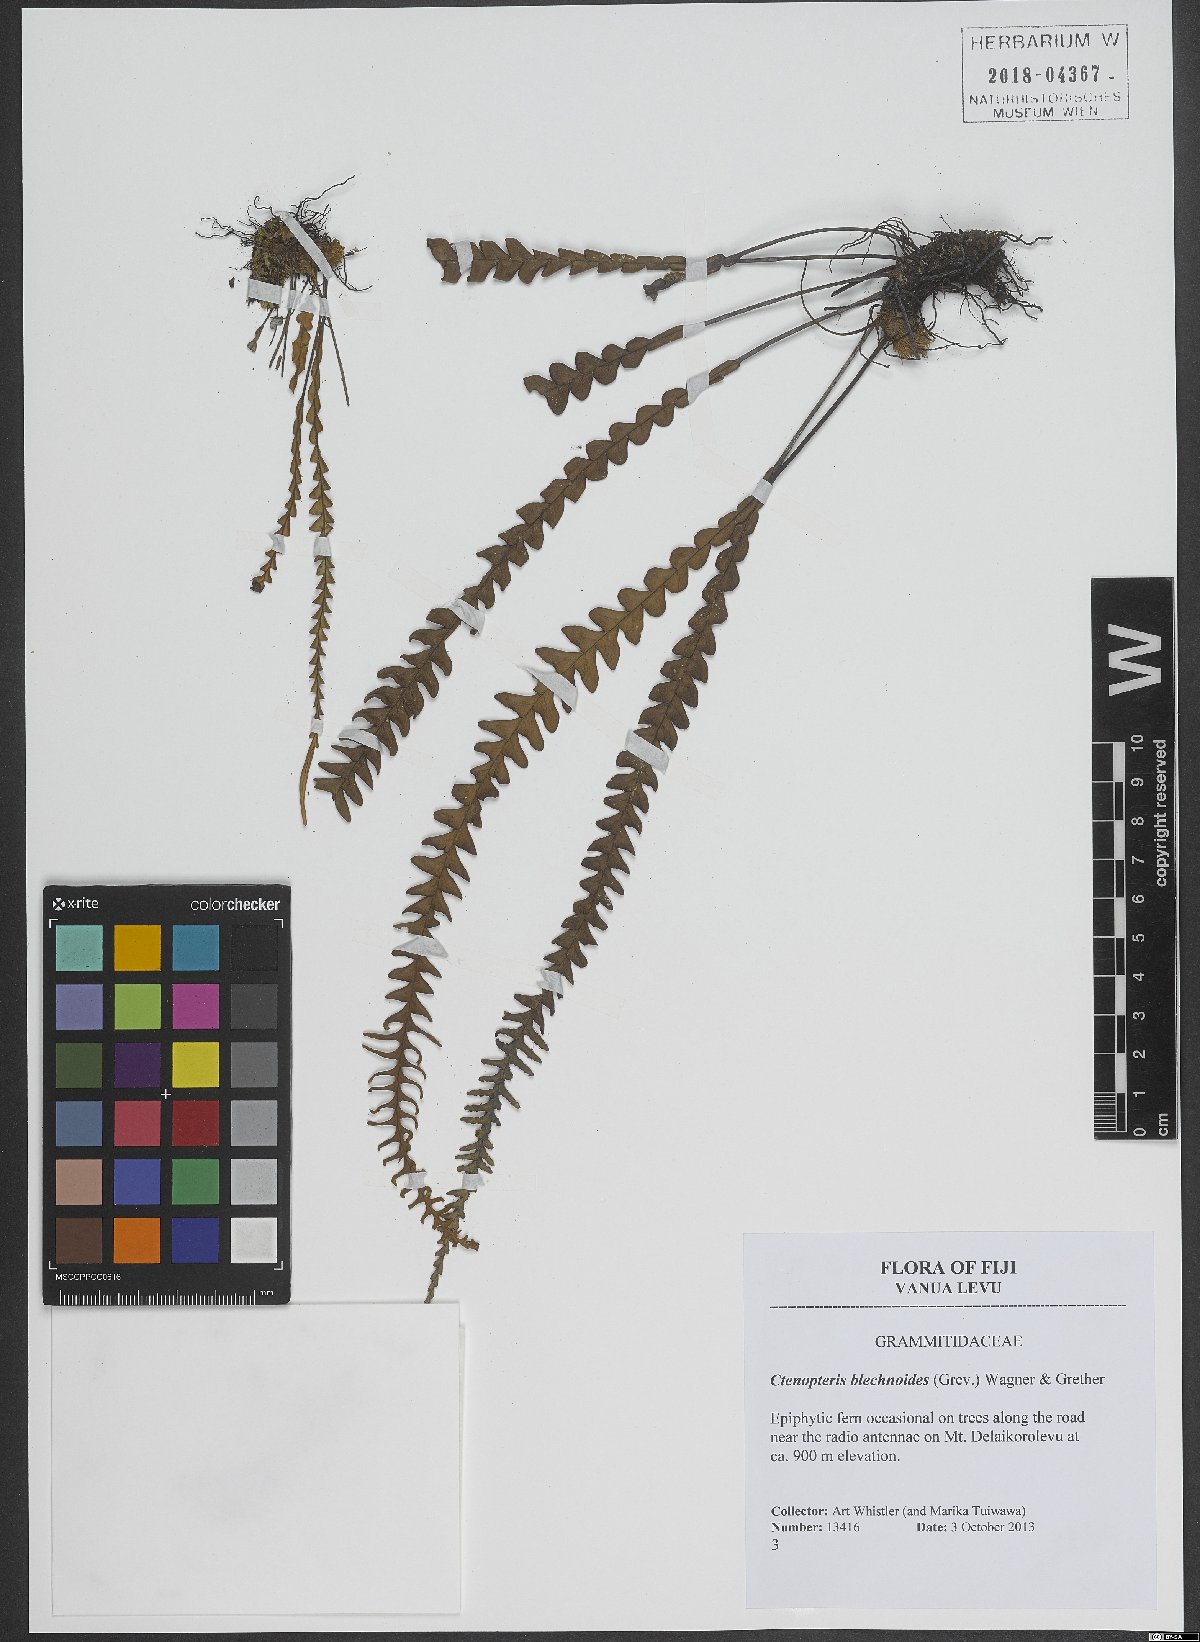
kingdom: Plantae
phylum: Tracheophyta
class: Polypodiopsida
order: Polypodiales
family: Polypodiaceae
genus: Ctenopterella
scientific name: Ctenopterella blechnoides
